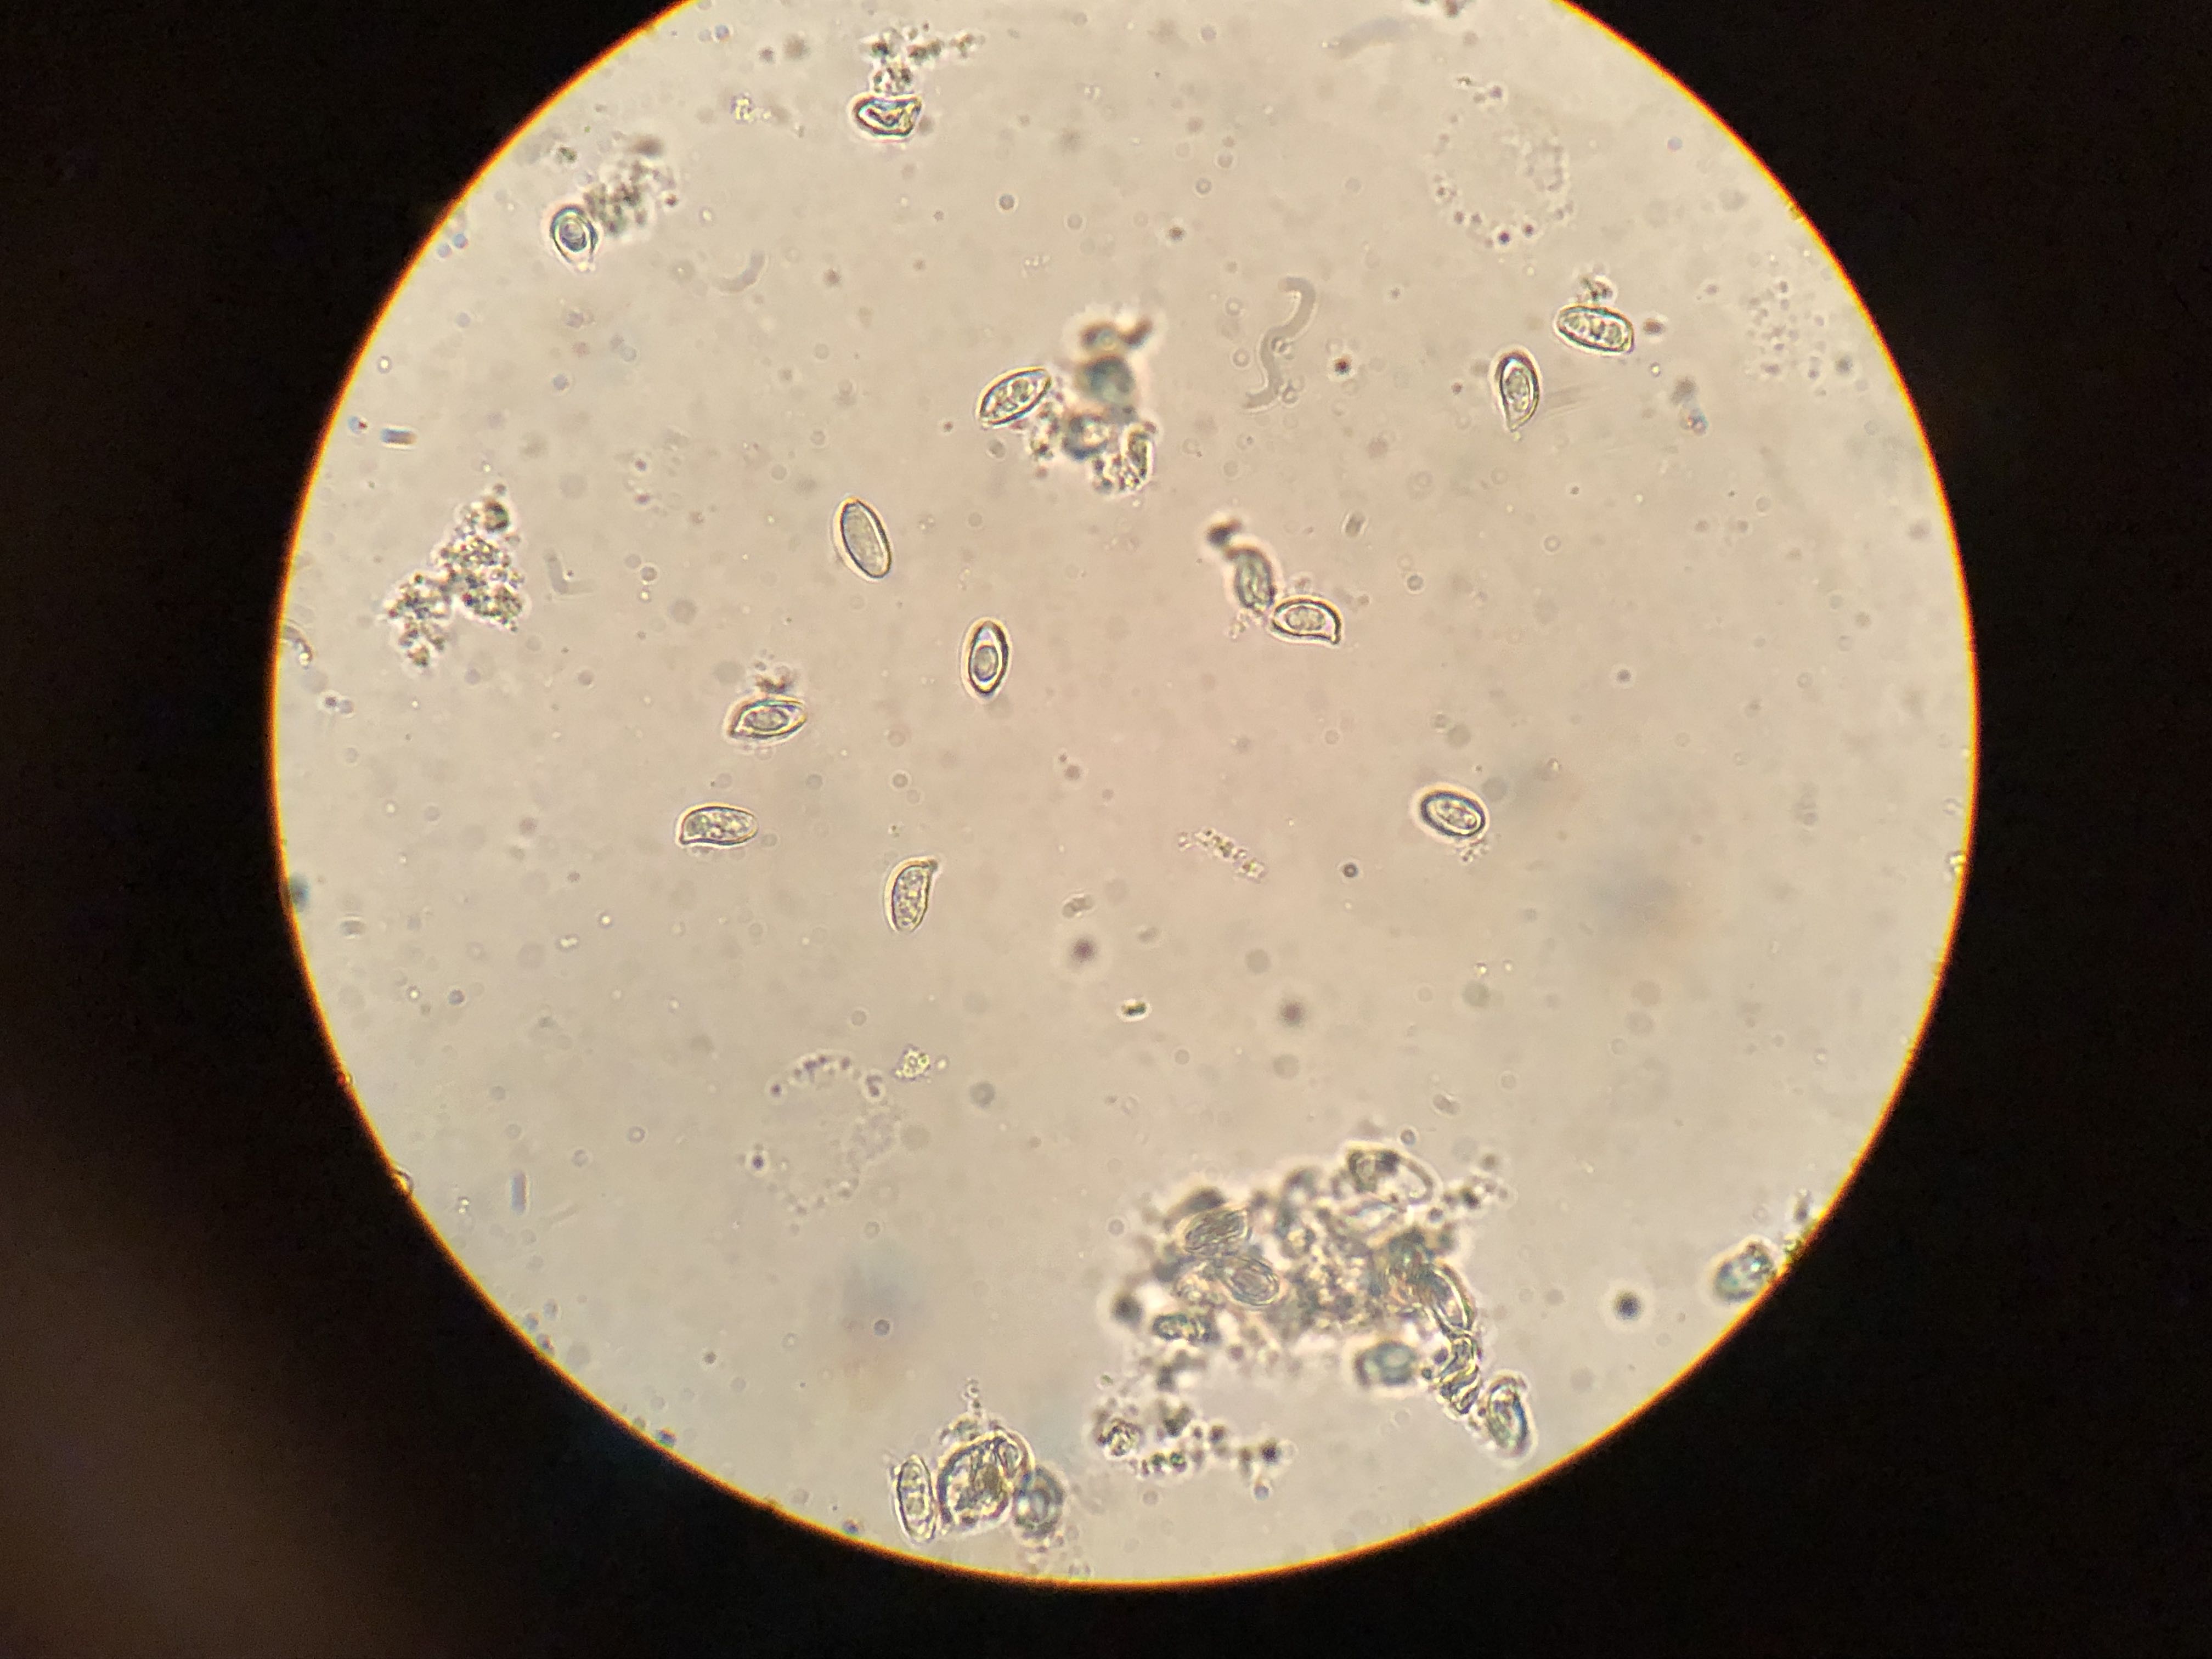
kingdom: Fungi
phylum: Basidiomycota
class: Agaricomycetes
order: Gomphales
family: Gomphaceae
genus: Ramaria
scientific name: Ramaria stricta
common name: rank koralsvamp
